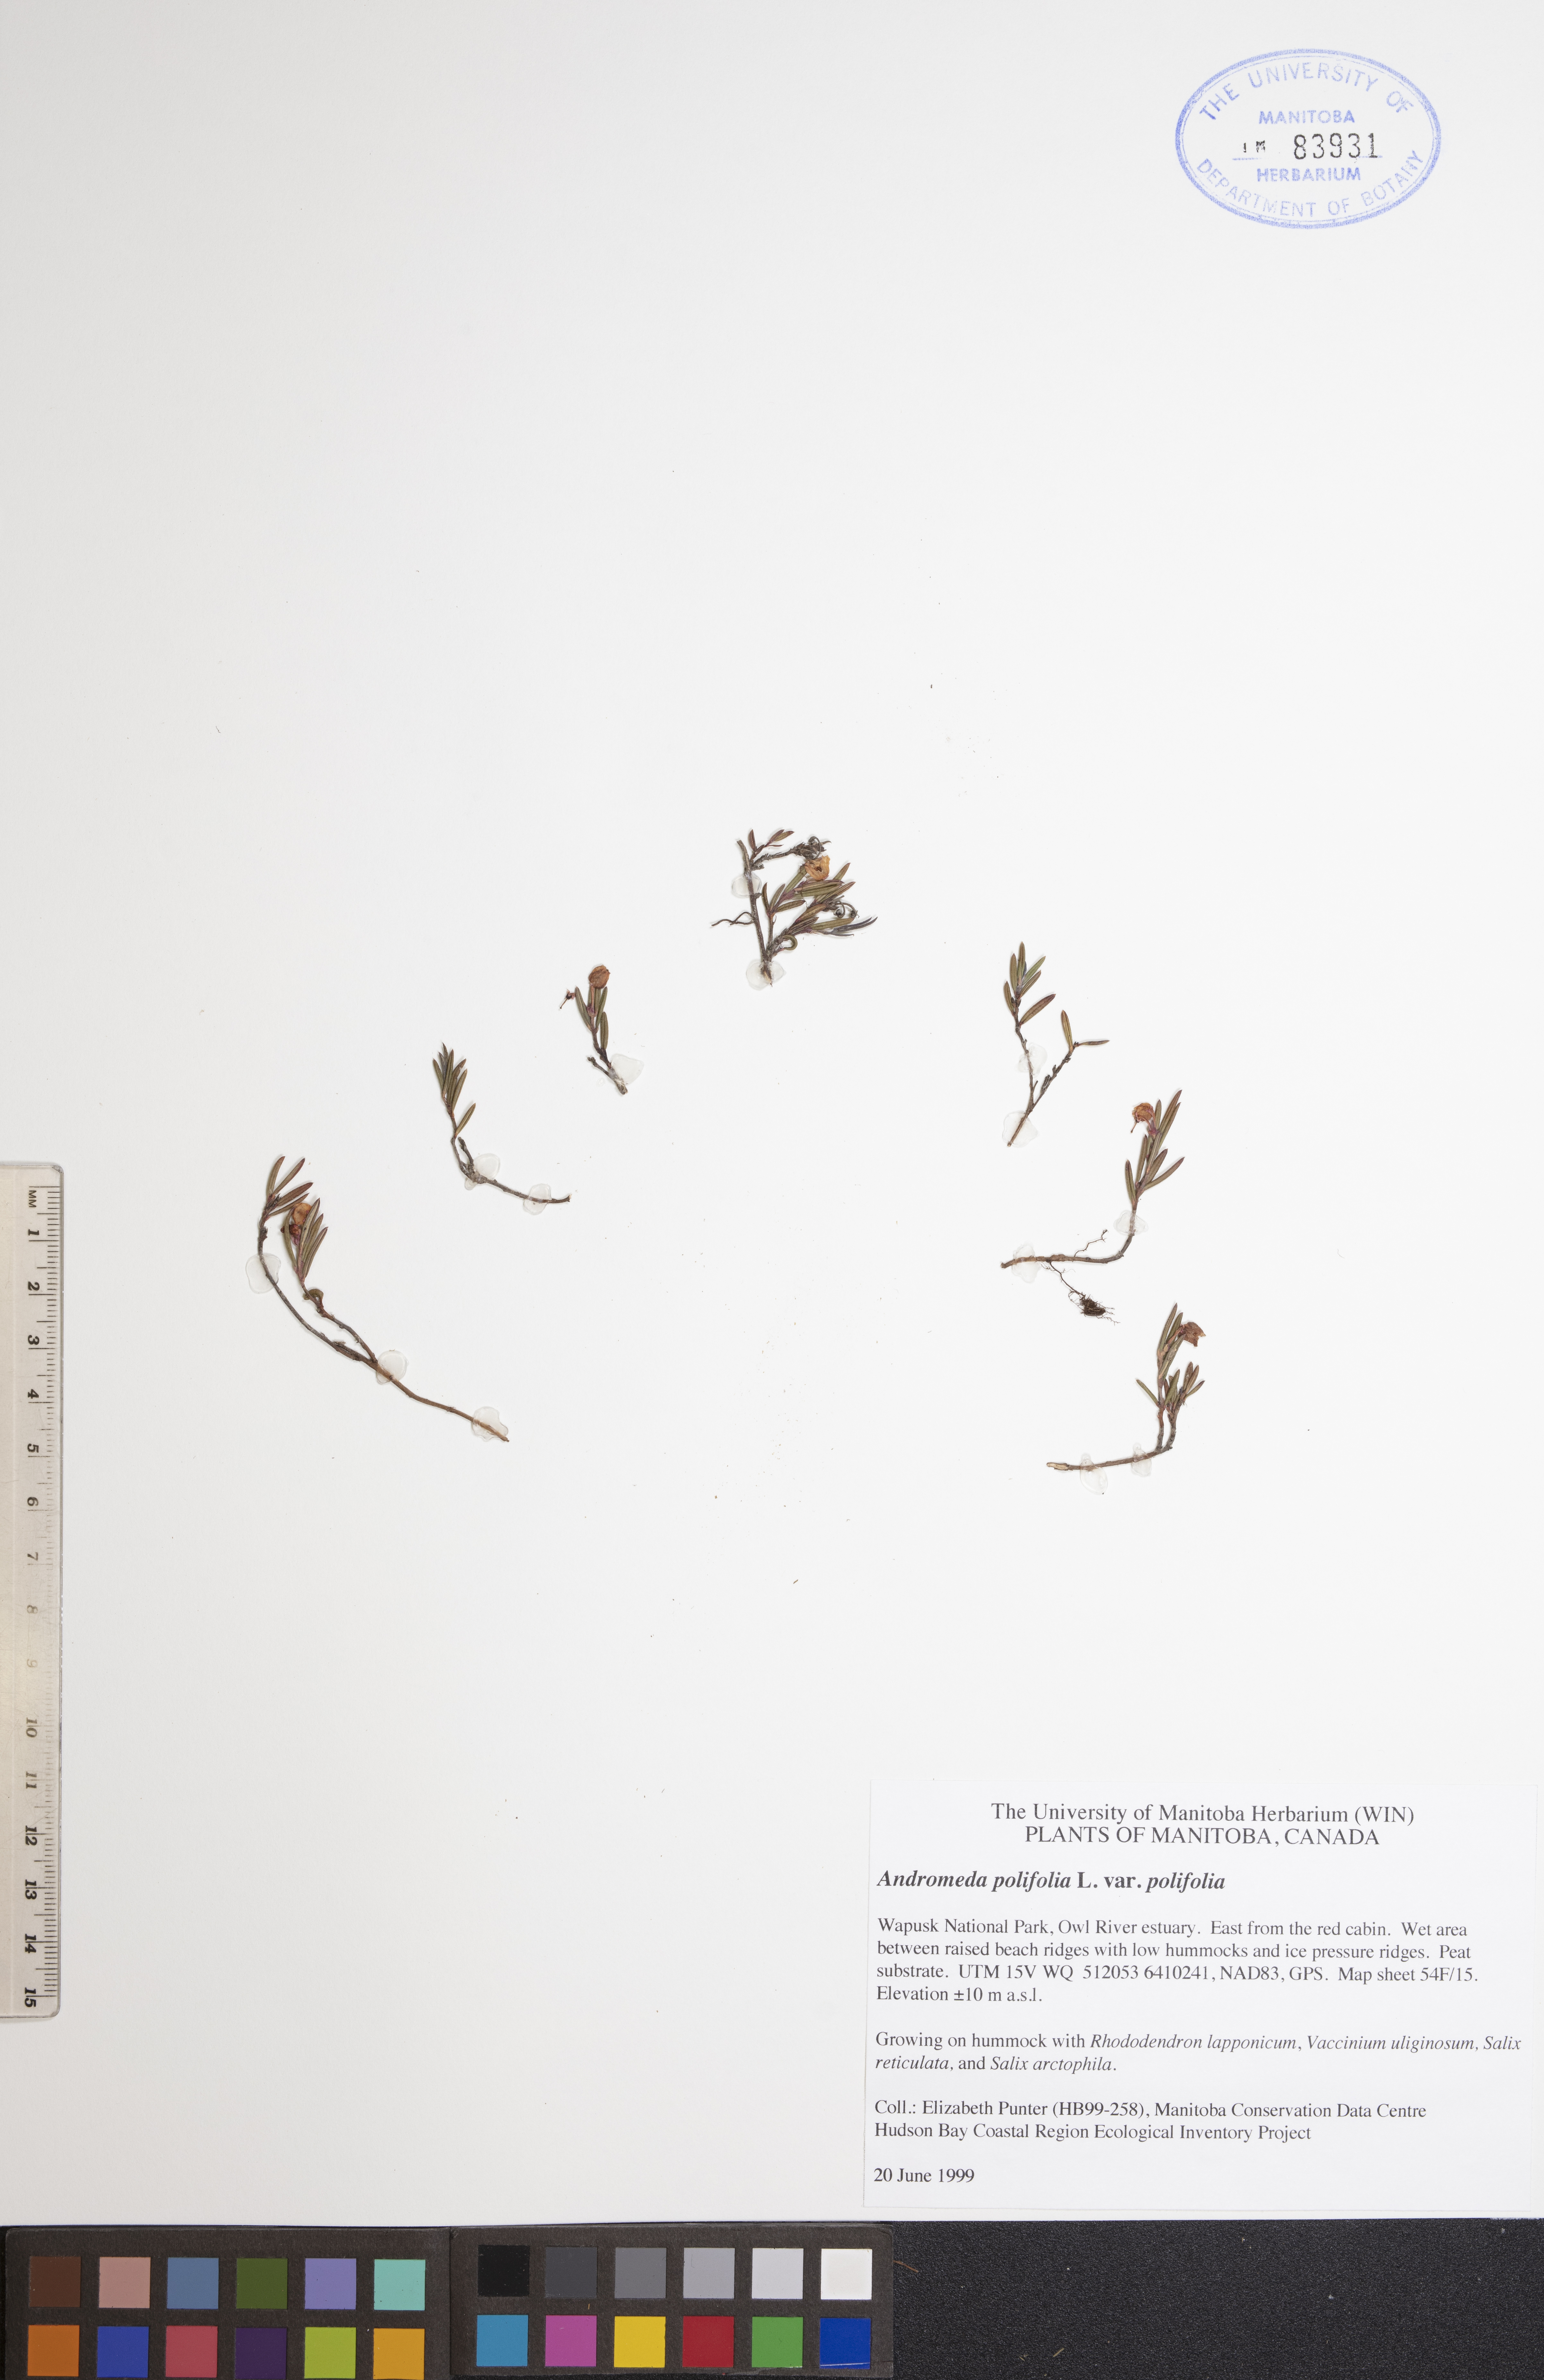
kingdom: Plantae
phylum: Tracheophyta
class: Magnoliopsida
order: Ericales
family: Ericaceae
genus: Andromeda
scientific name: Andromeda polifolia
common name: Bog-rosemary
